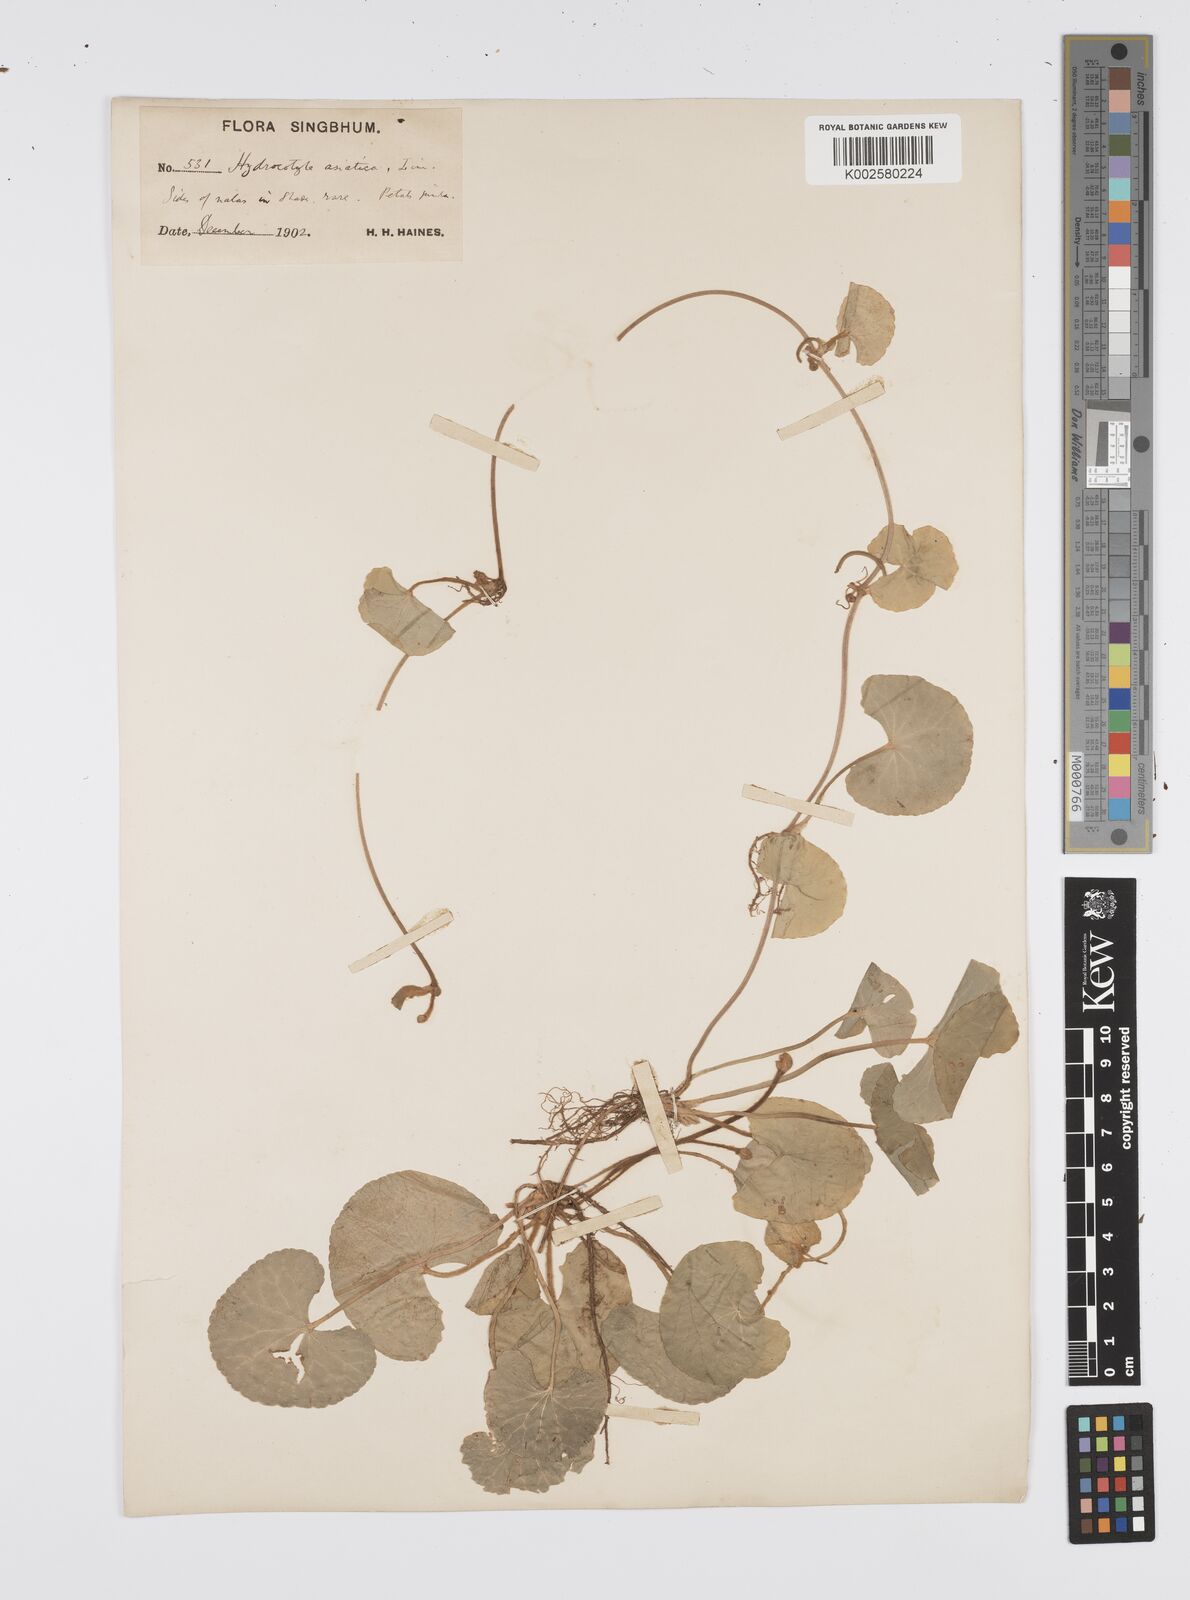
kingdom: Plantae
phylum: Tracheophyta
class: Magnoliopsida
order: Apiales
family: Apiaceae
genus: Centella
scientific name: Centella asiatica
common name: Spadeleaf
